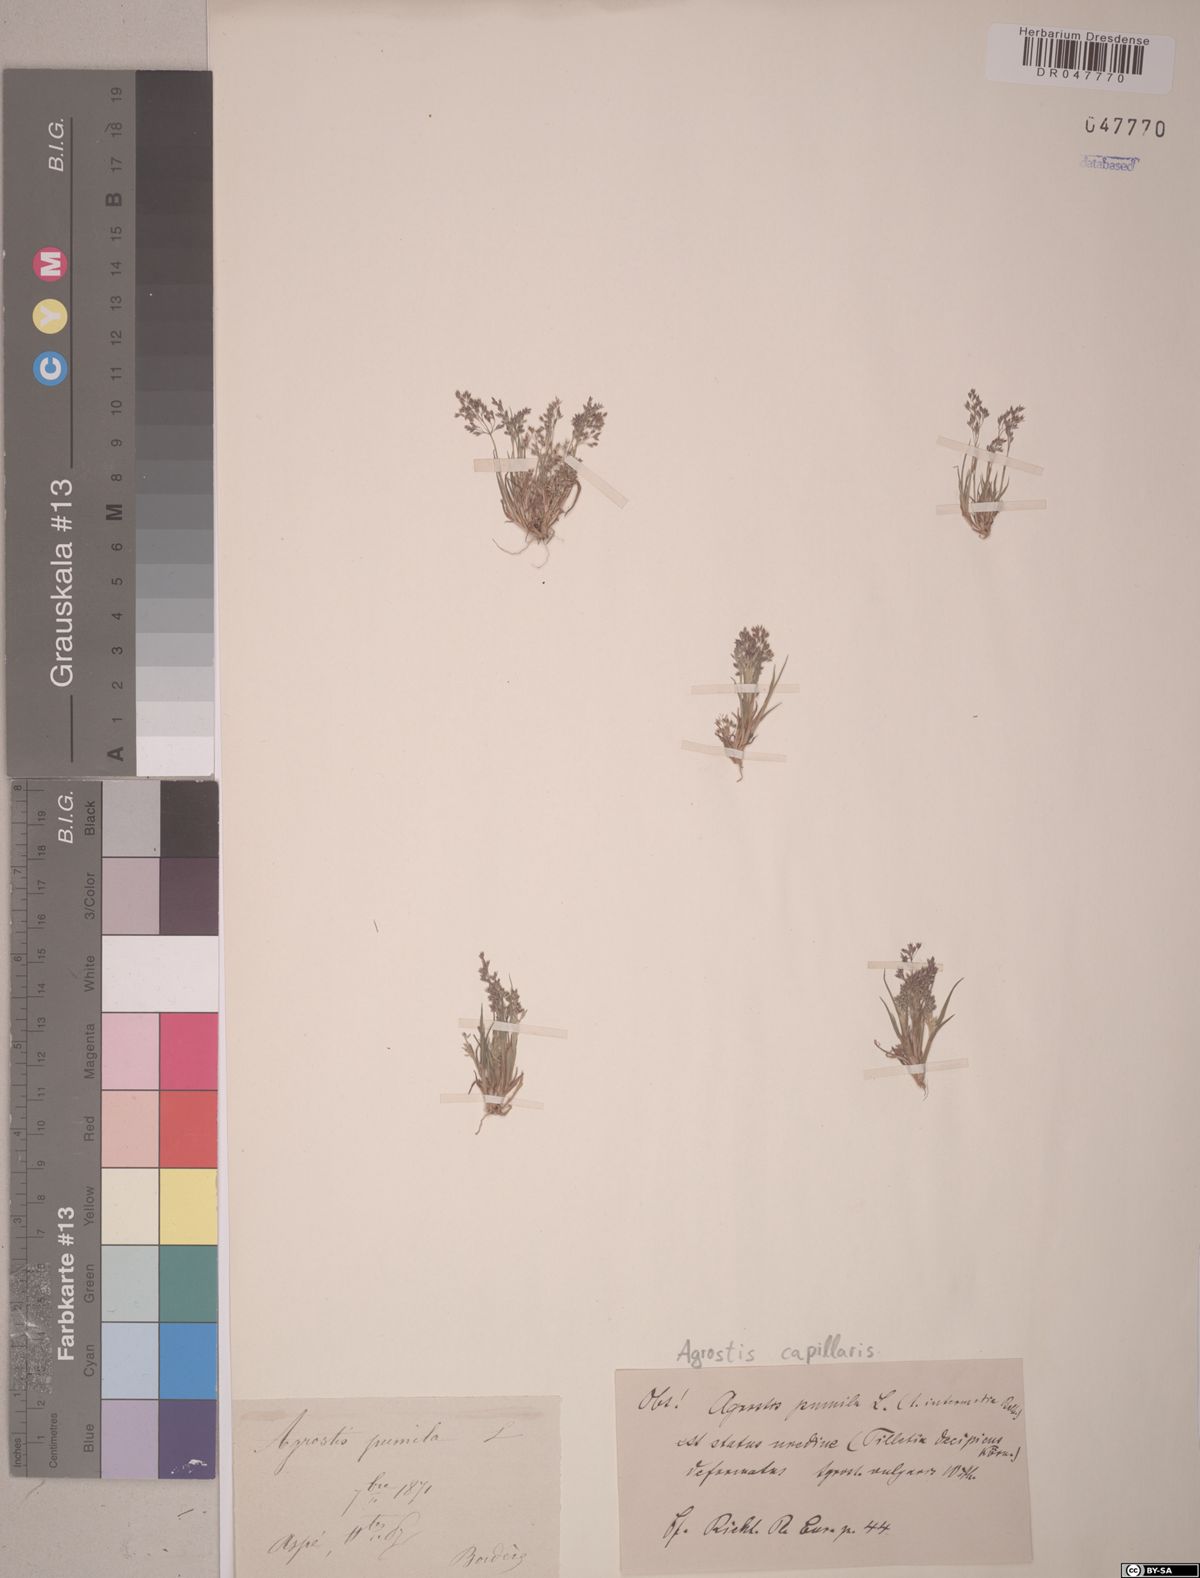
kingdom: Plantae
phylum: Tracheophyta
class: Liliopsida
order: Poales
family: Poaceae
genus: Agrostis
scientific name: Agrostis capillaris
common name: Colonial bentgrass
